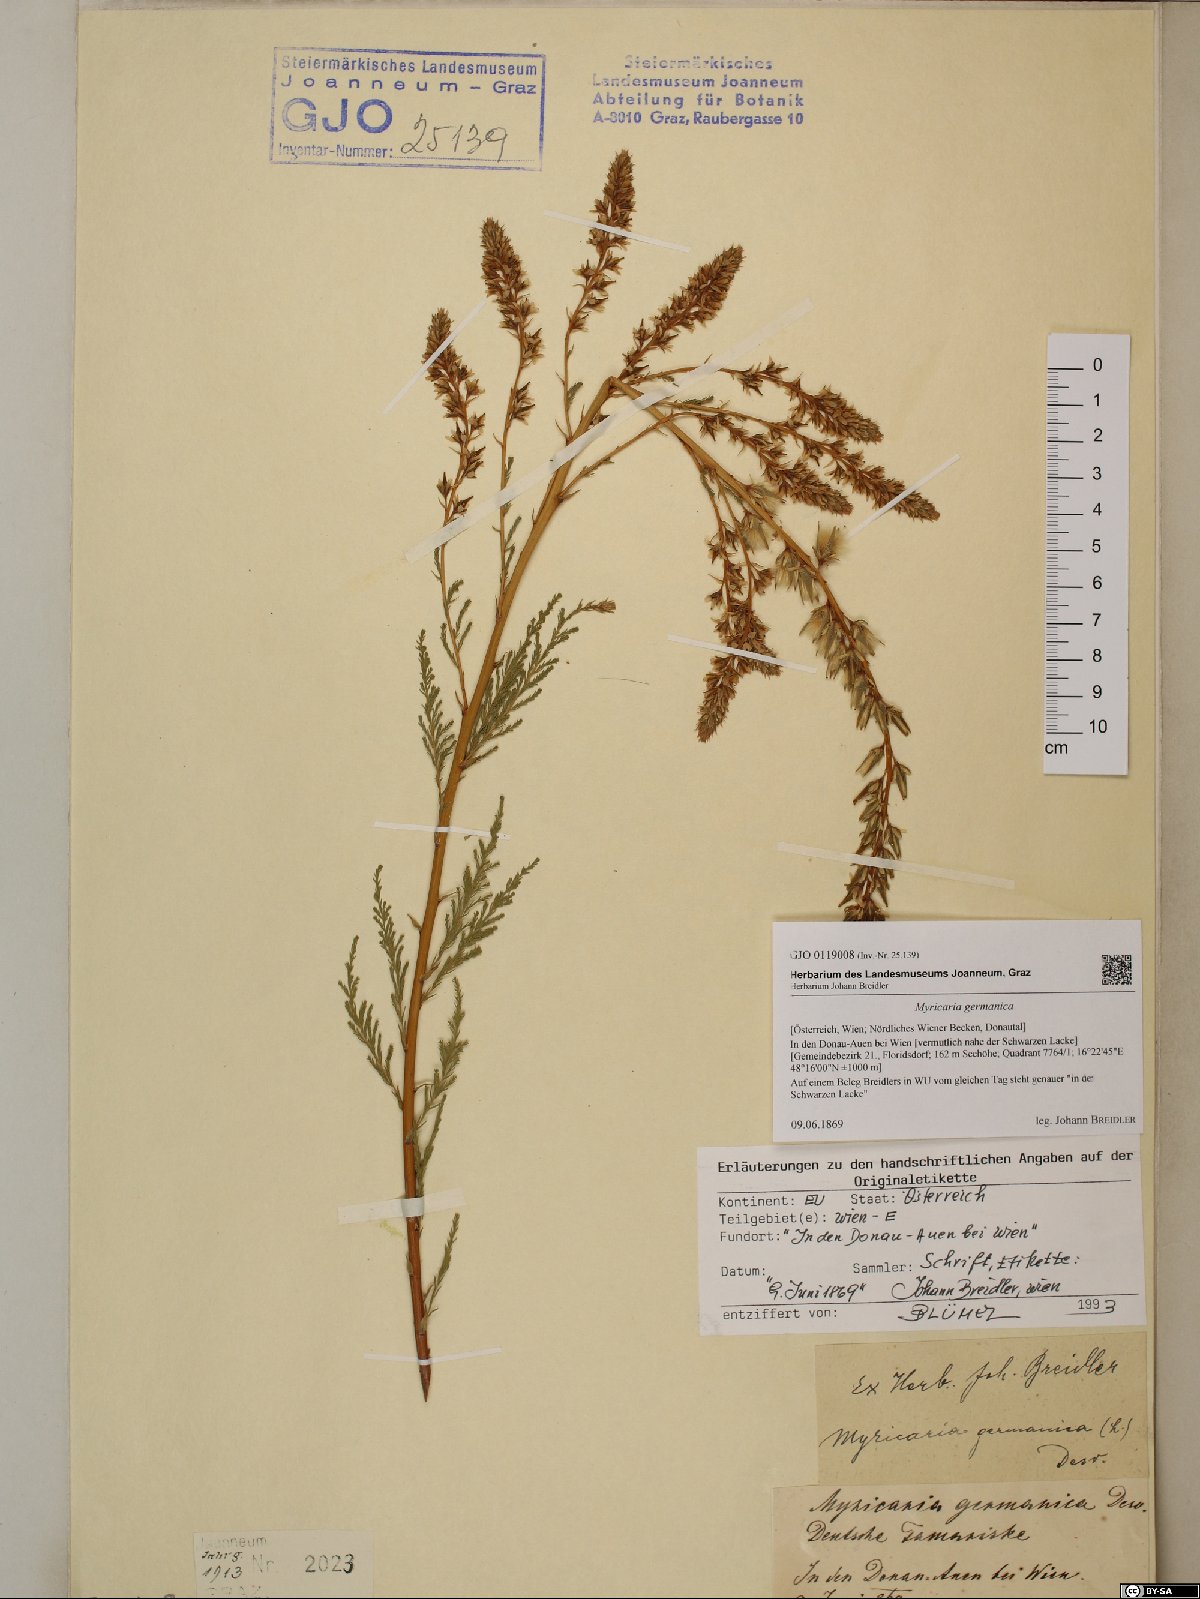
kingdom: Plantae
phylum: Tracheophyta
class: Magnoliopsida
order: Caryophyllales
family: Tamaricaceae
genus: Myricaria
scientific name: Myricaria germanica
